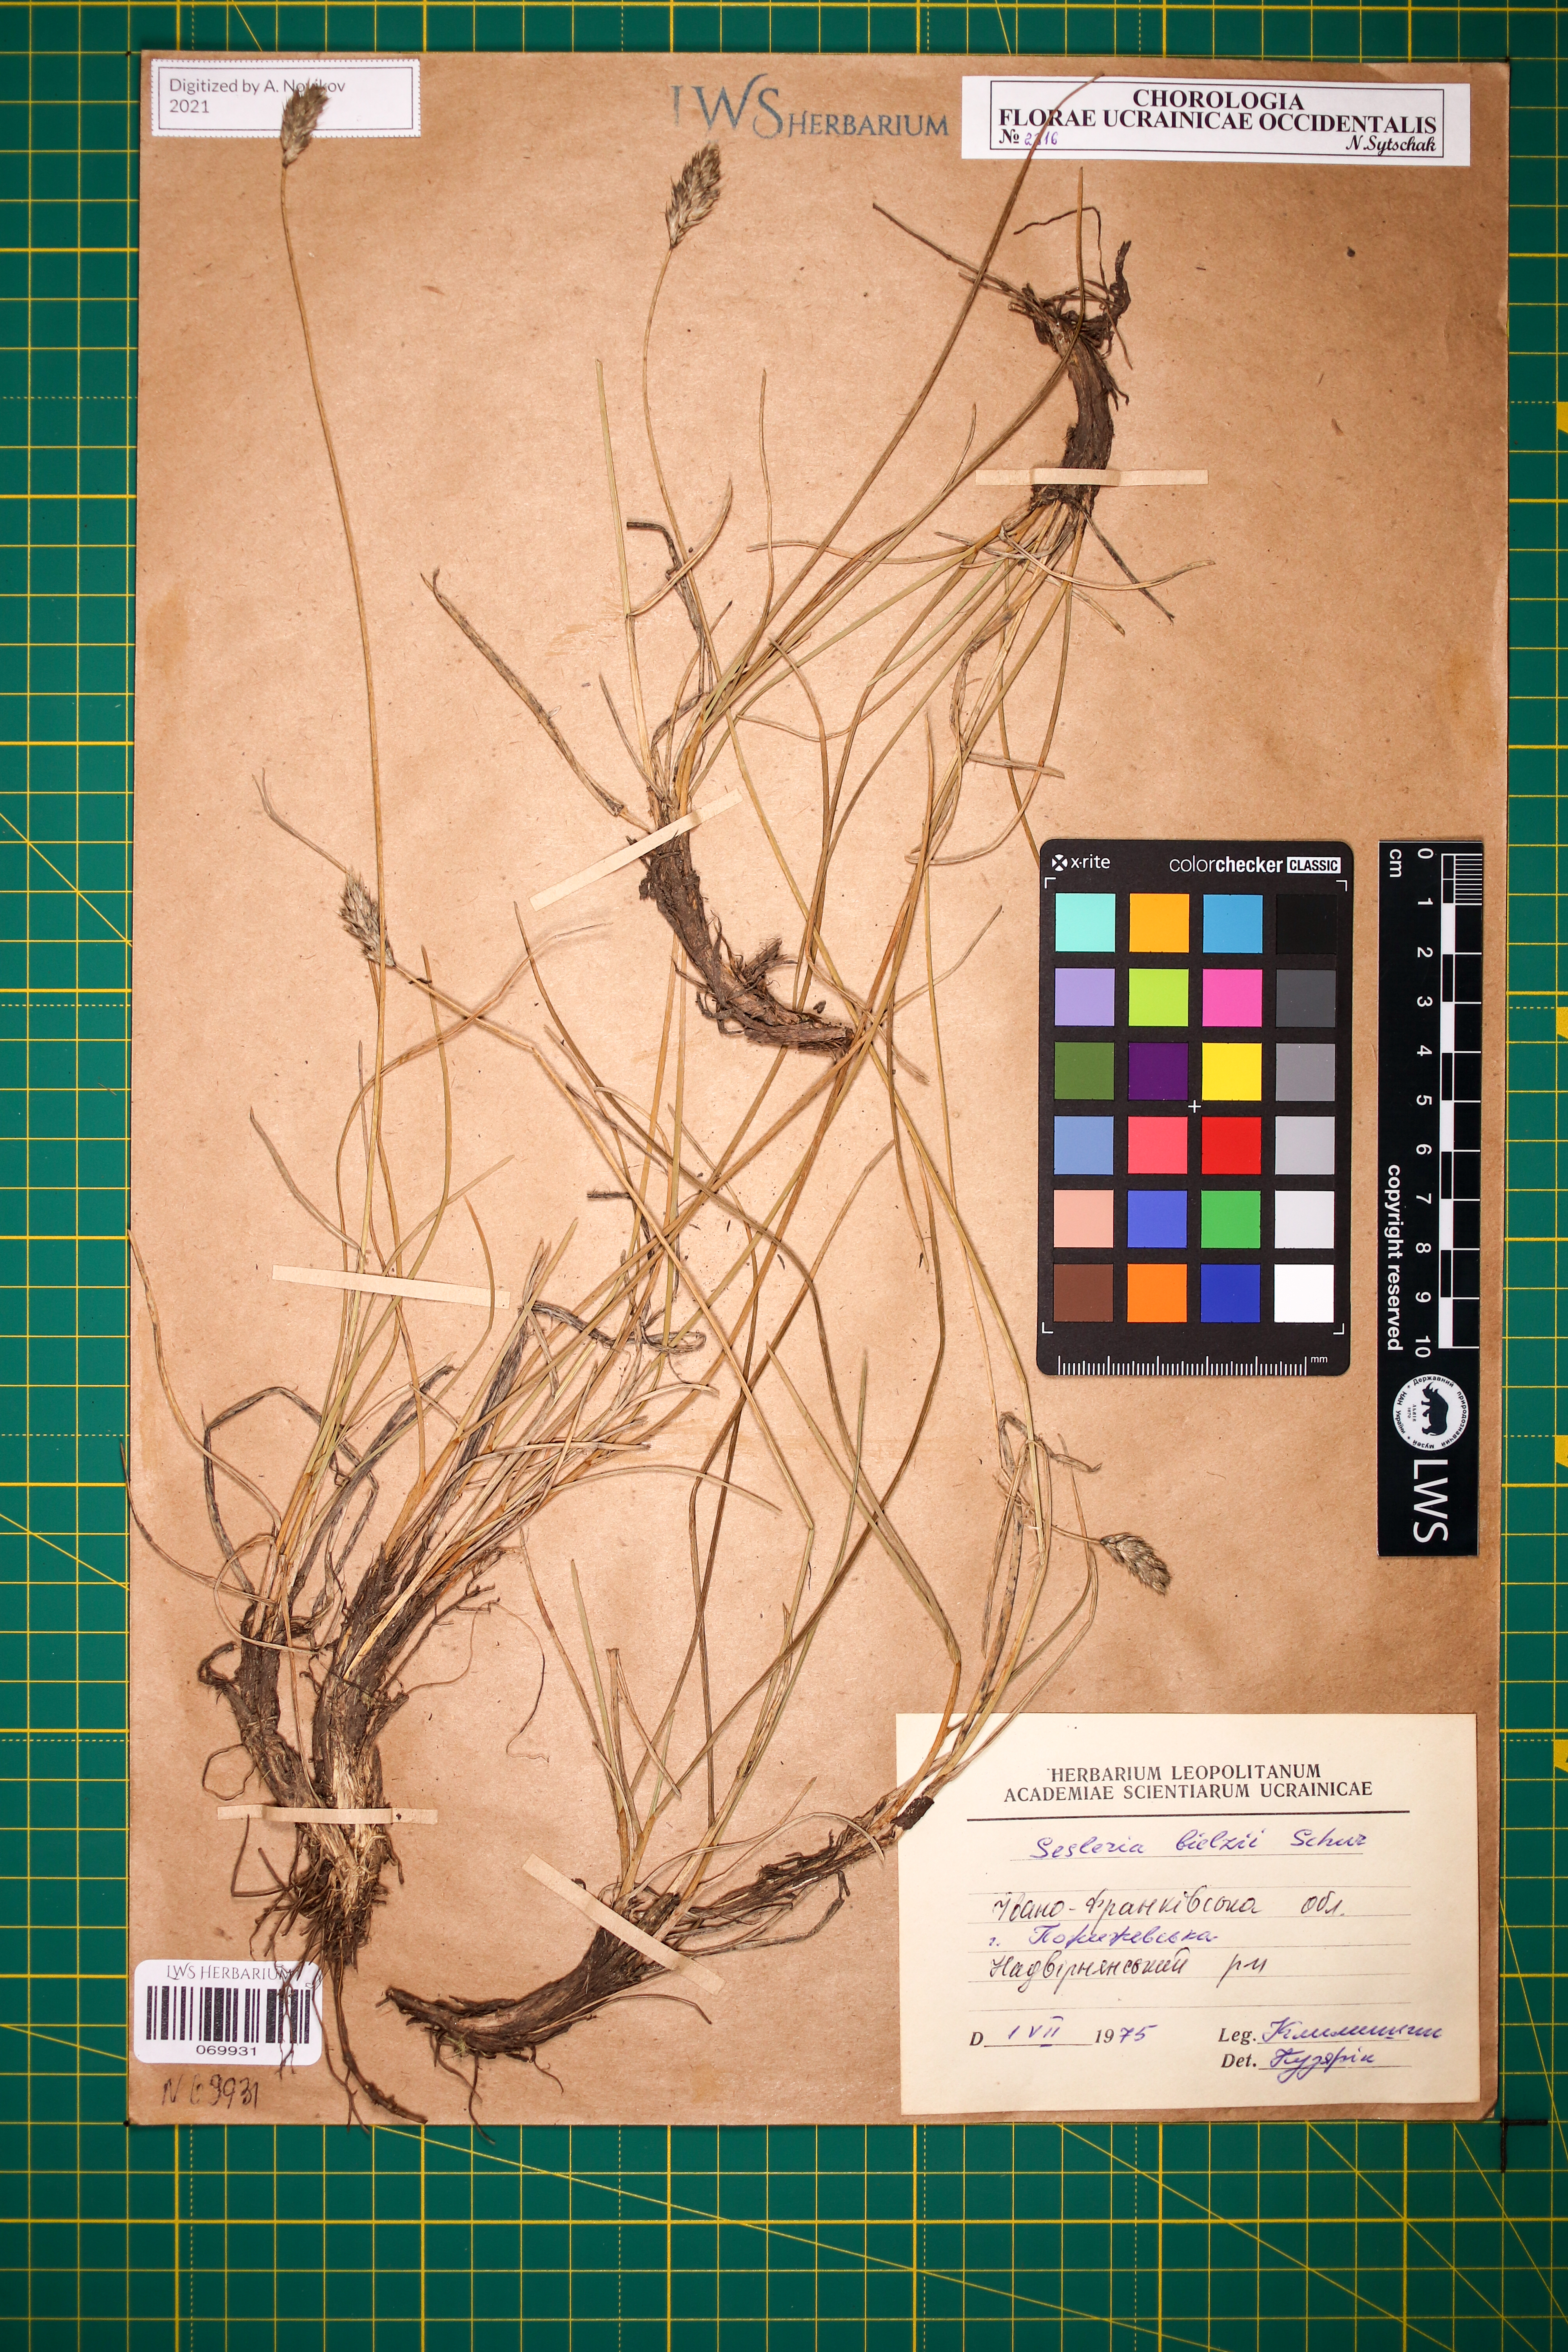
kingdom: Plantae
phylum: Tracheophyta
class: Liliopsida
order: Poales
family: Poaceae
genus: Sesleria
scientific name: Sesleria bielzii
